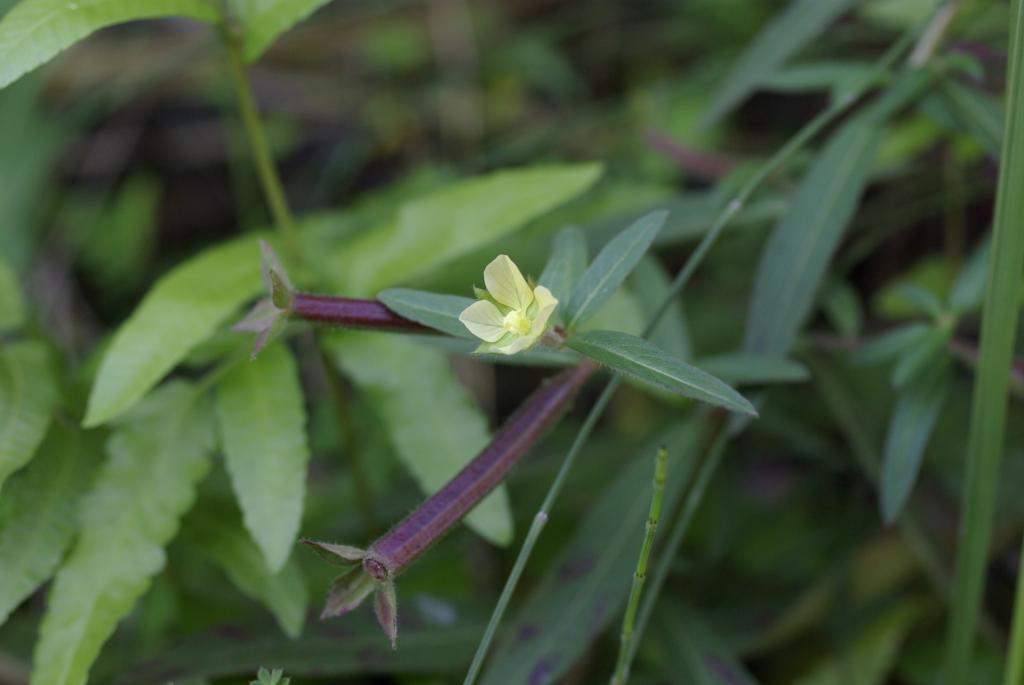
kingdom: Plantae
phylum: Tracheophyta
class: Magnoliopsida
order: Myrtales
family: Onagraceae
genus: Ludwigia
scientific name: Ludwigia octovalvis
